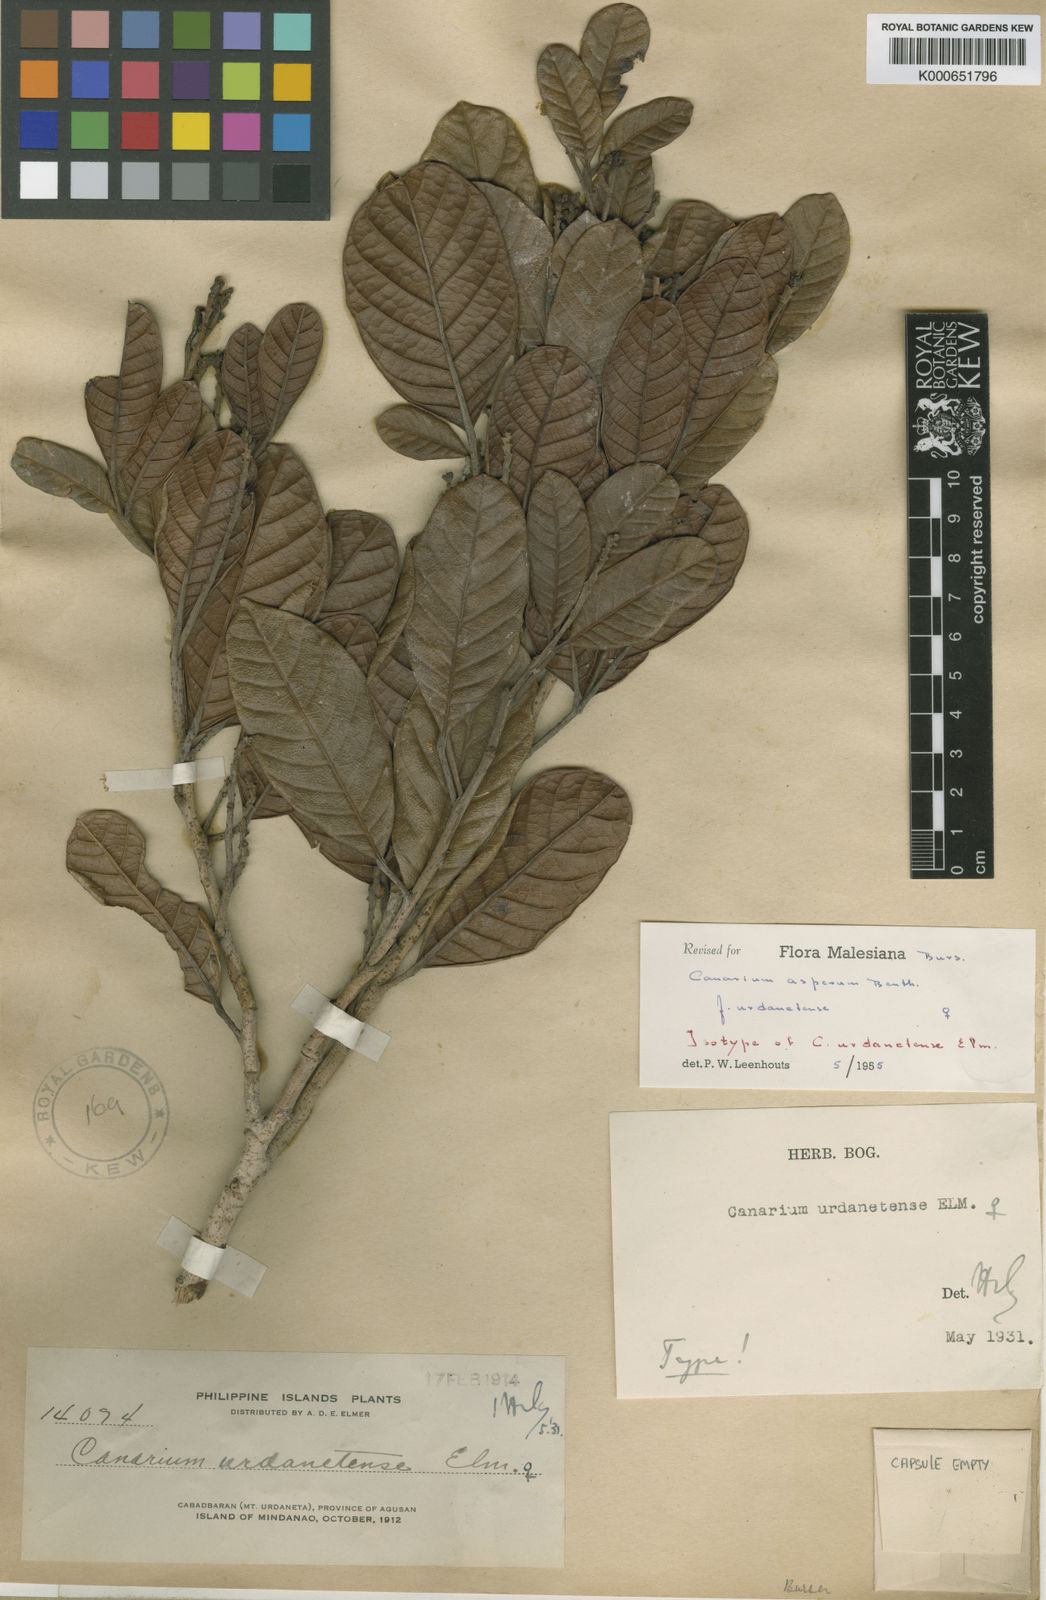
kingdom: Plantae
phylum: Tracheophyta
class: Magnoliopsida
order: Sapindales
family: Burseraceae
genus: Canarium
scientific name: Canarium asperum
